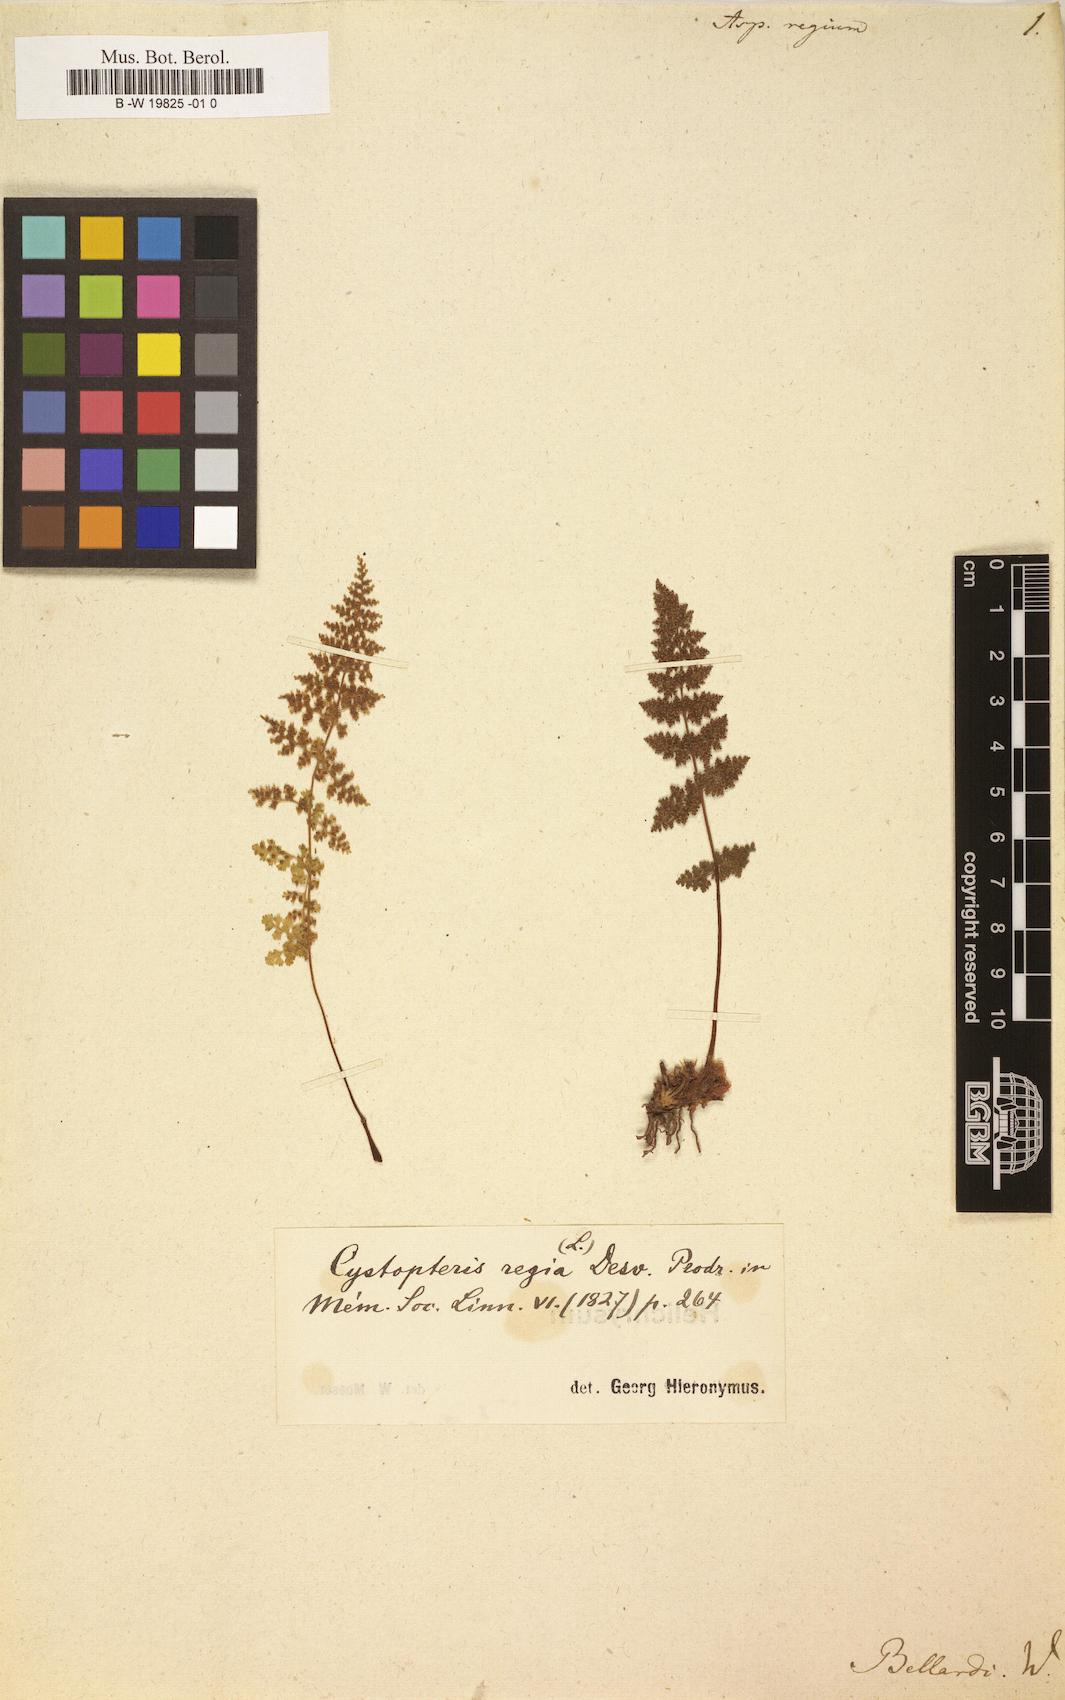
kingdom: Plantae
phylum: Tracheophyta
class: Polypodiopsida
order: Polypodiales
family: Cystopteridaceae
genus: Cystopteris
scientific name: Cystopteris fragilis
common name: Brittle bladder fern
